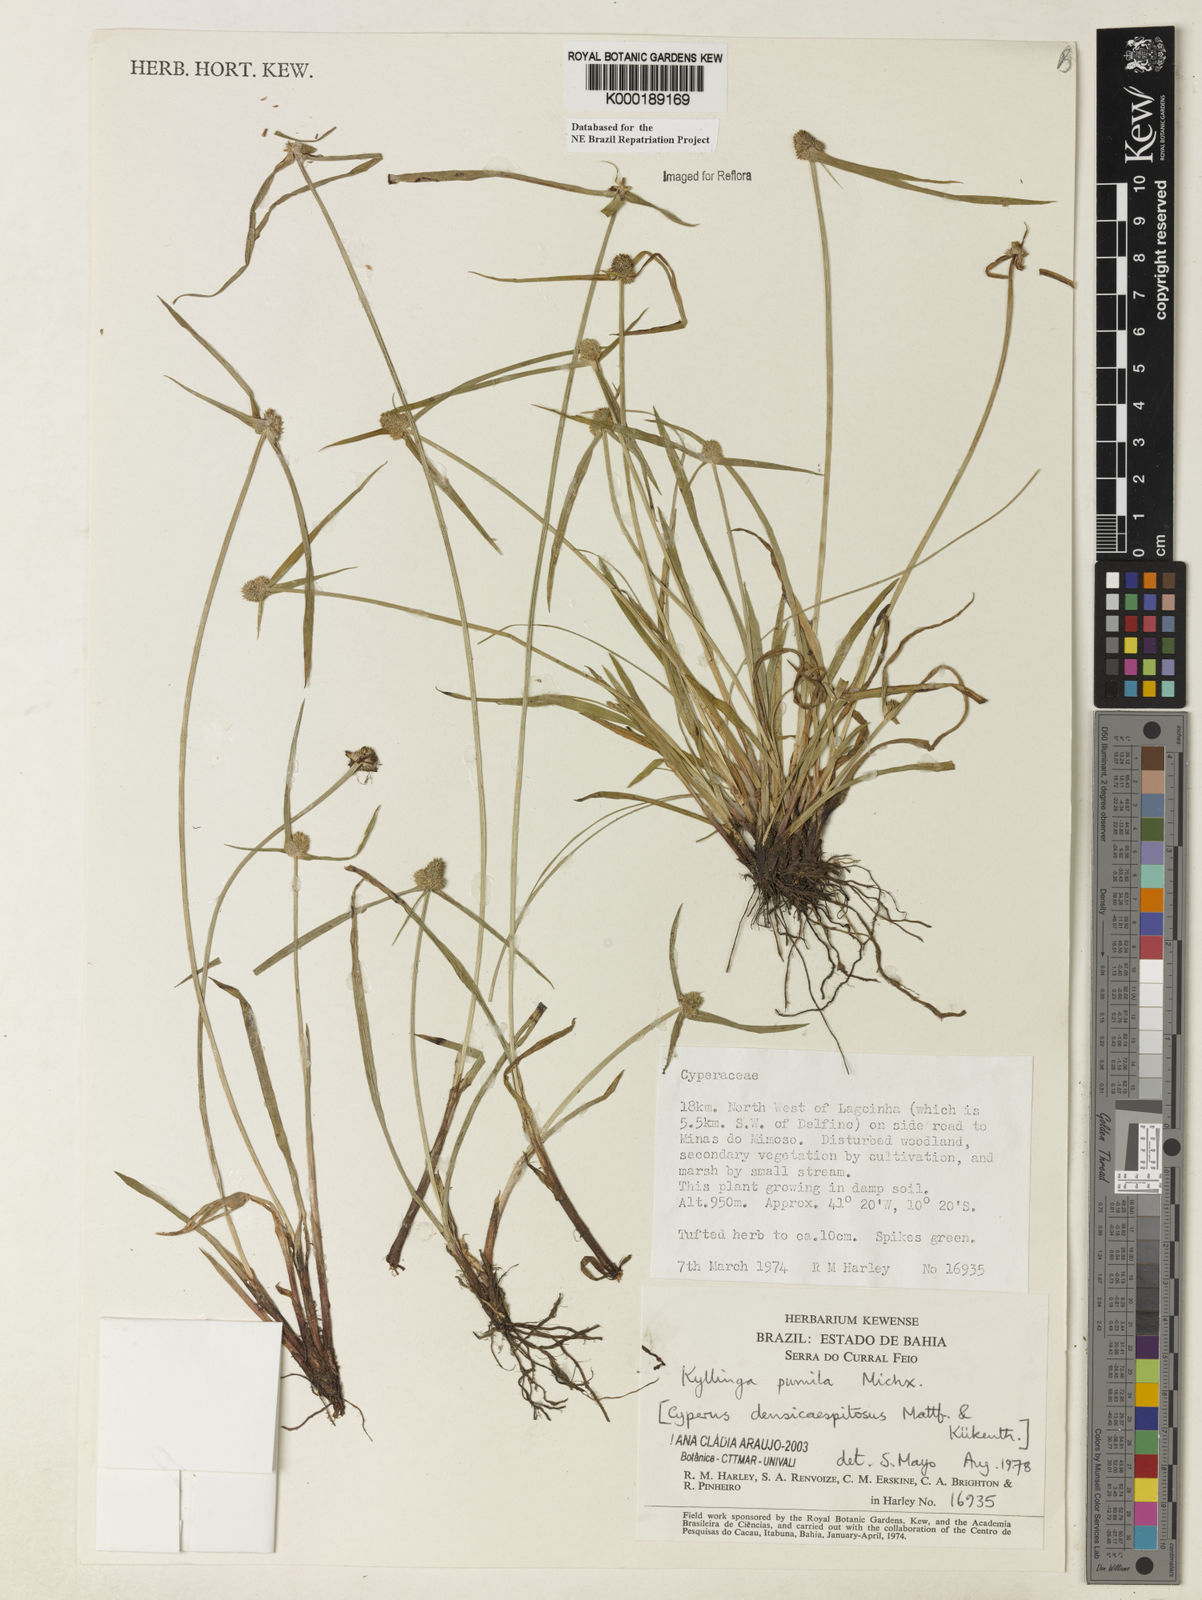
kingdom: Plantae
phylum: Tracheophyta
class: Liliopsida
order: Poales
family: Cyperaceae
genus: Cyperus
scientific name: Cyperus hortensis
